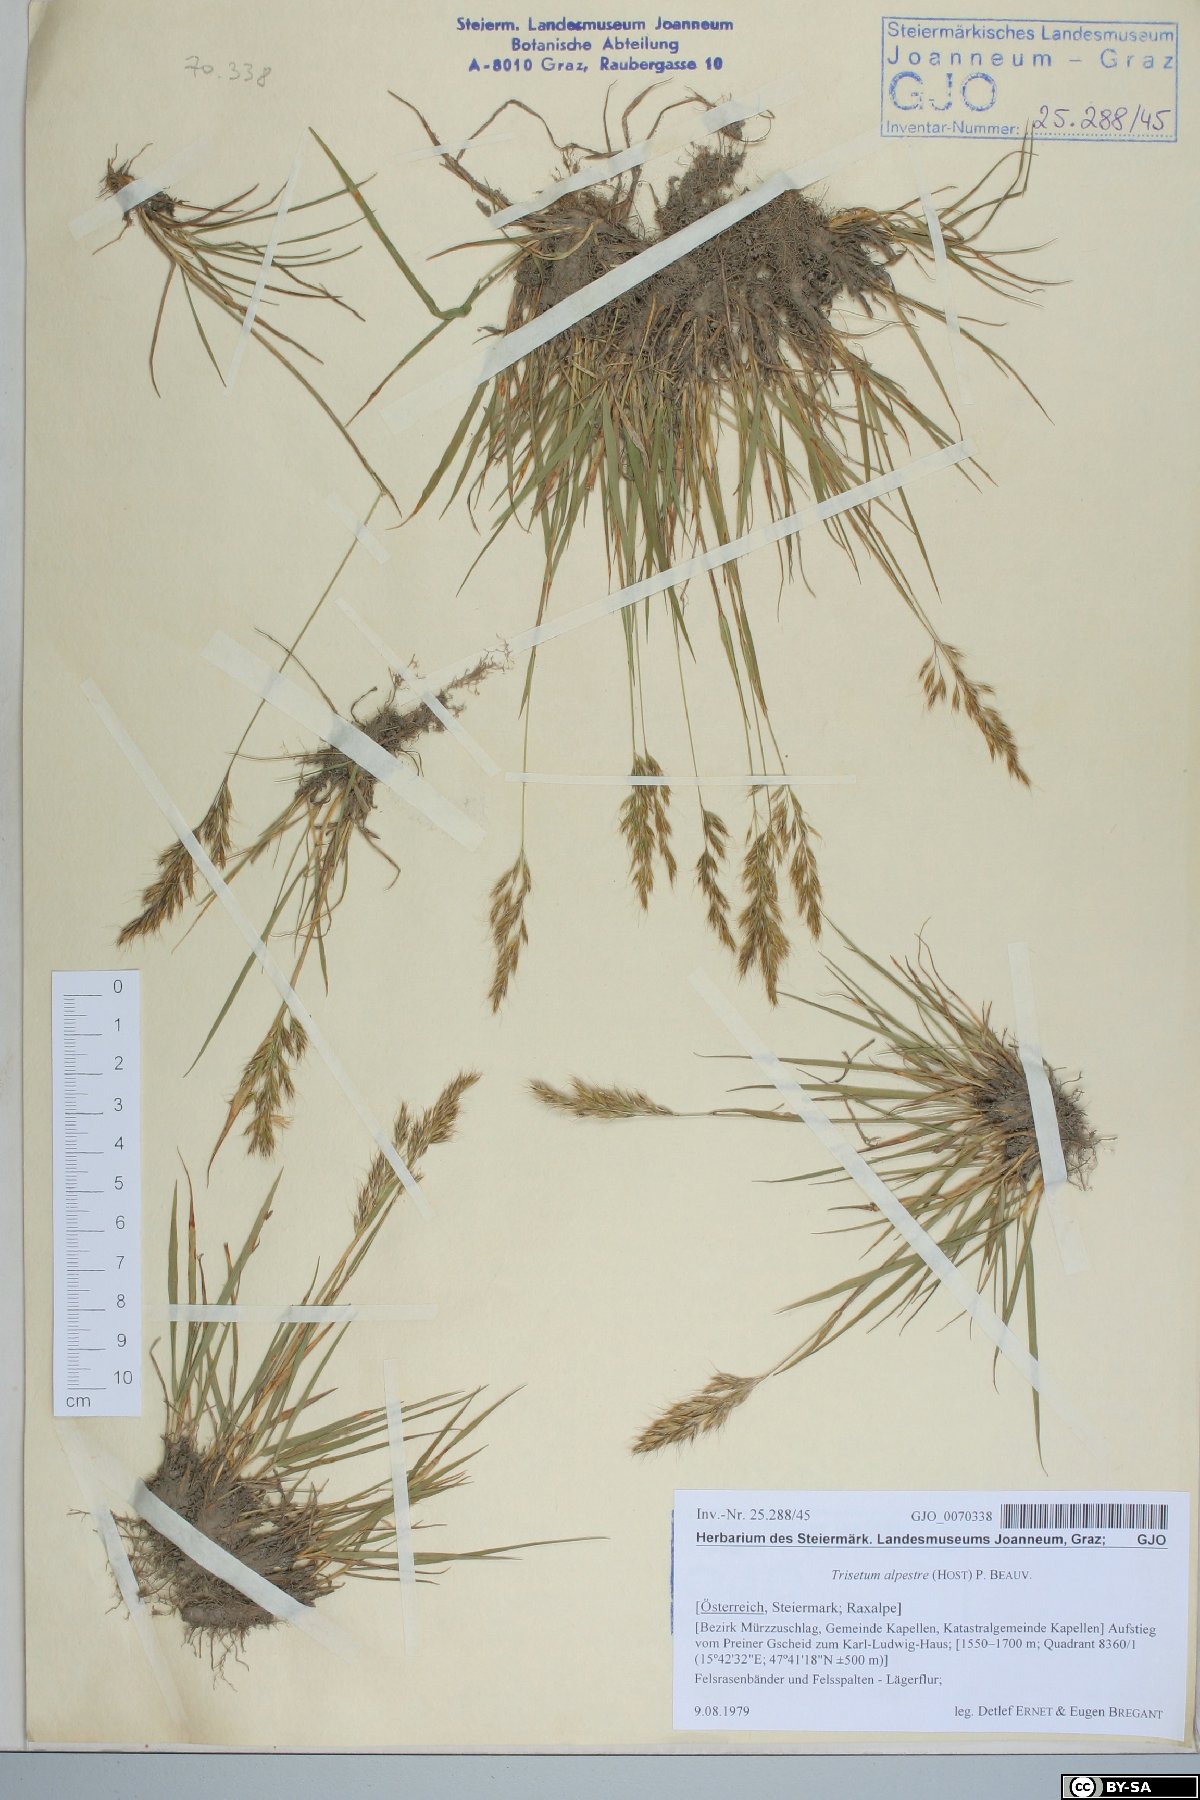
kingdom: Plantae
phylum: Tracheophyta
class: Liliopsida
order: Poales
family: Poaceae
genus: Trisetum
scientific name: Trisetum alpestre
